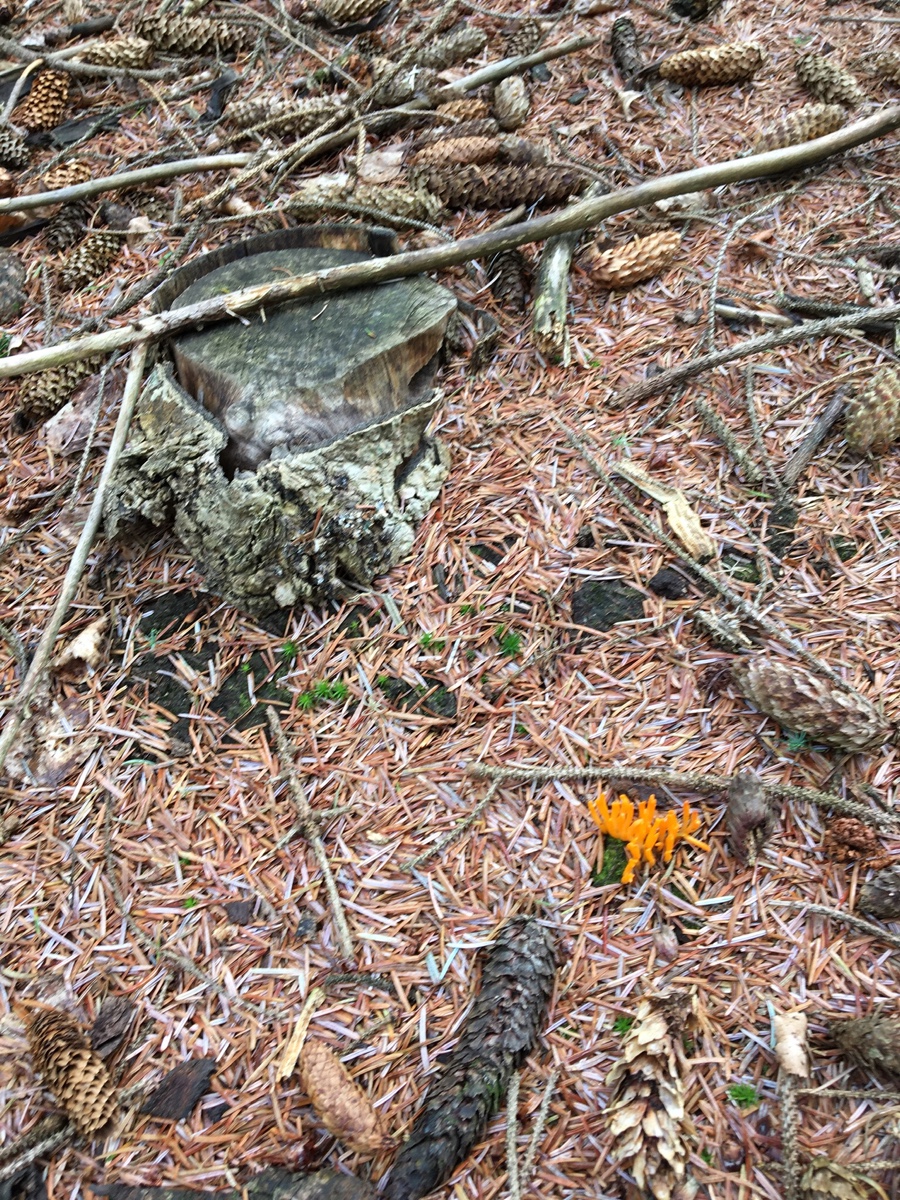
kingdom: Fungi
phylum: Basidiomycota
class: Dacrymycetes
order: Dacrymycetales
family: Dacrymycetaceae
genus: Calocera
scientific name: Calocera viscosa
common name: almindelig guldgaffel
